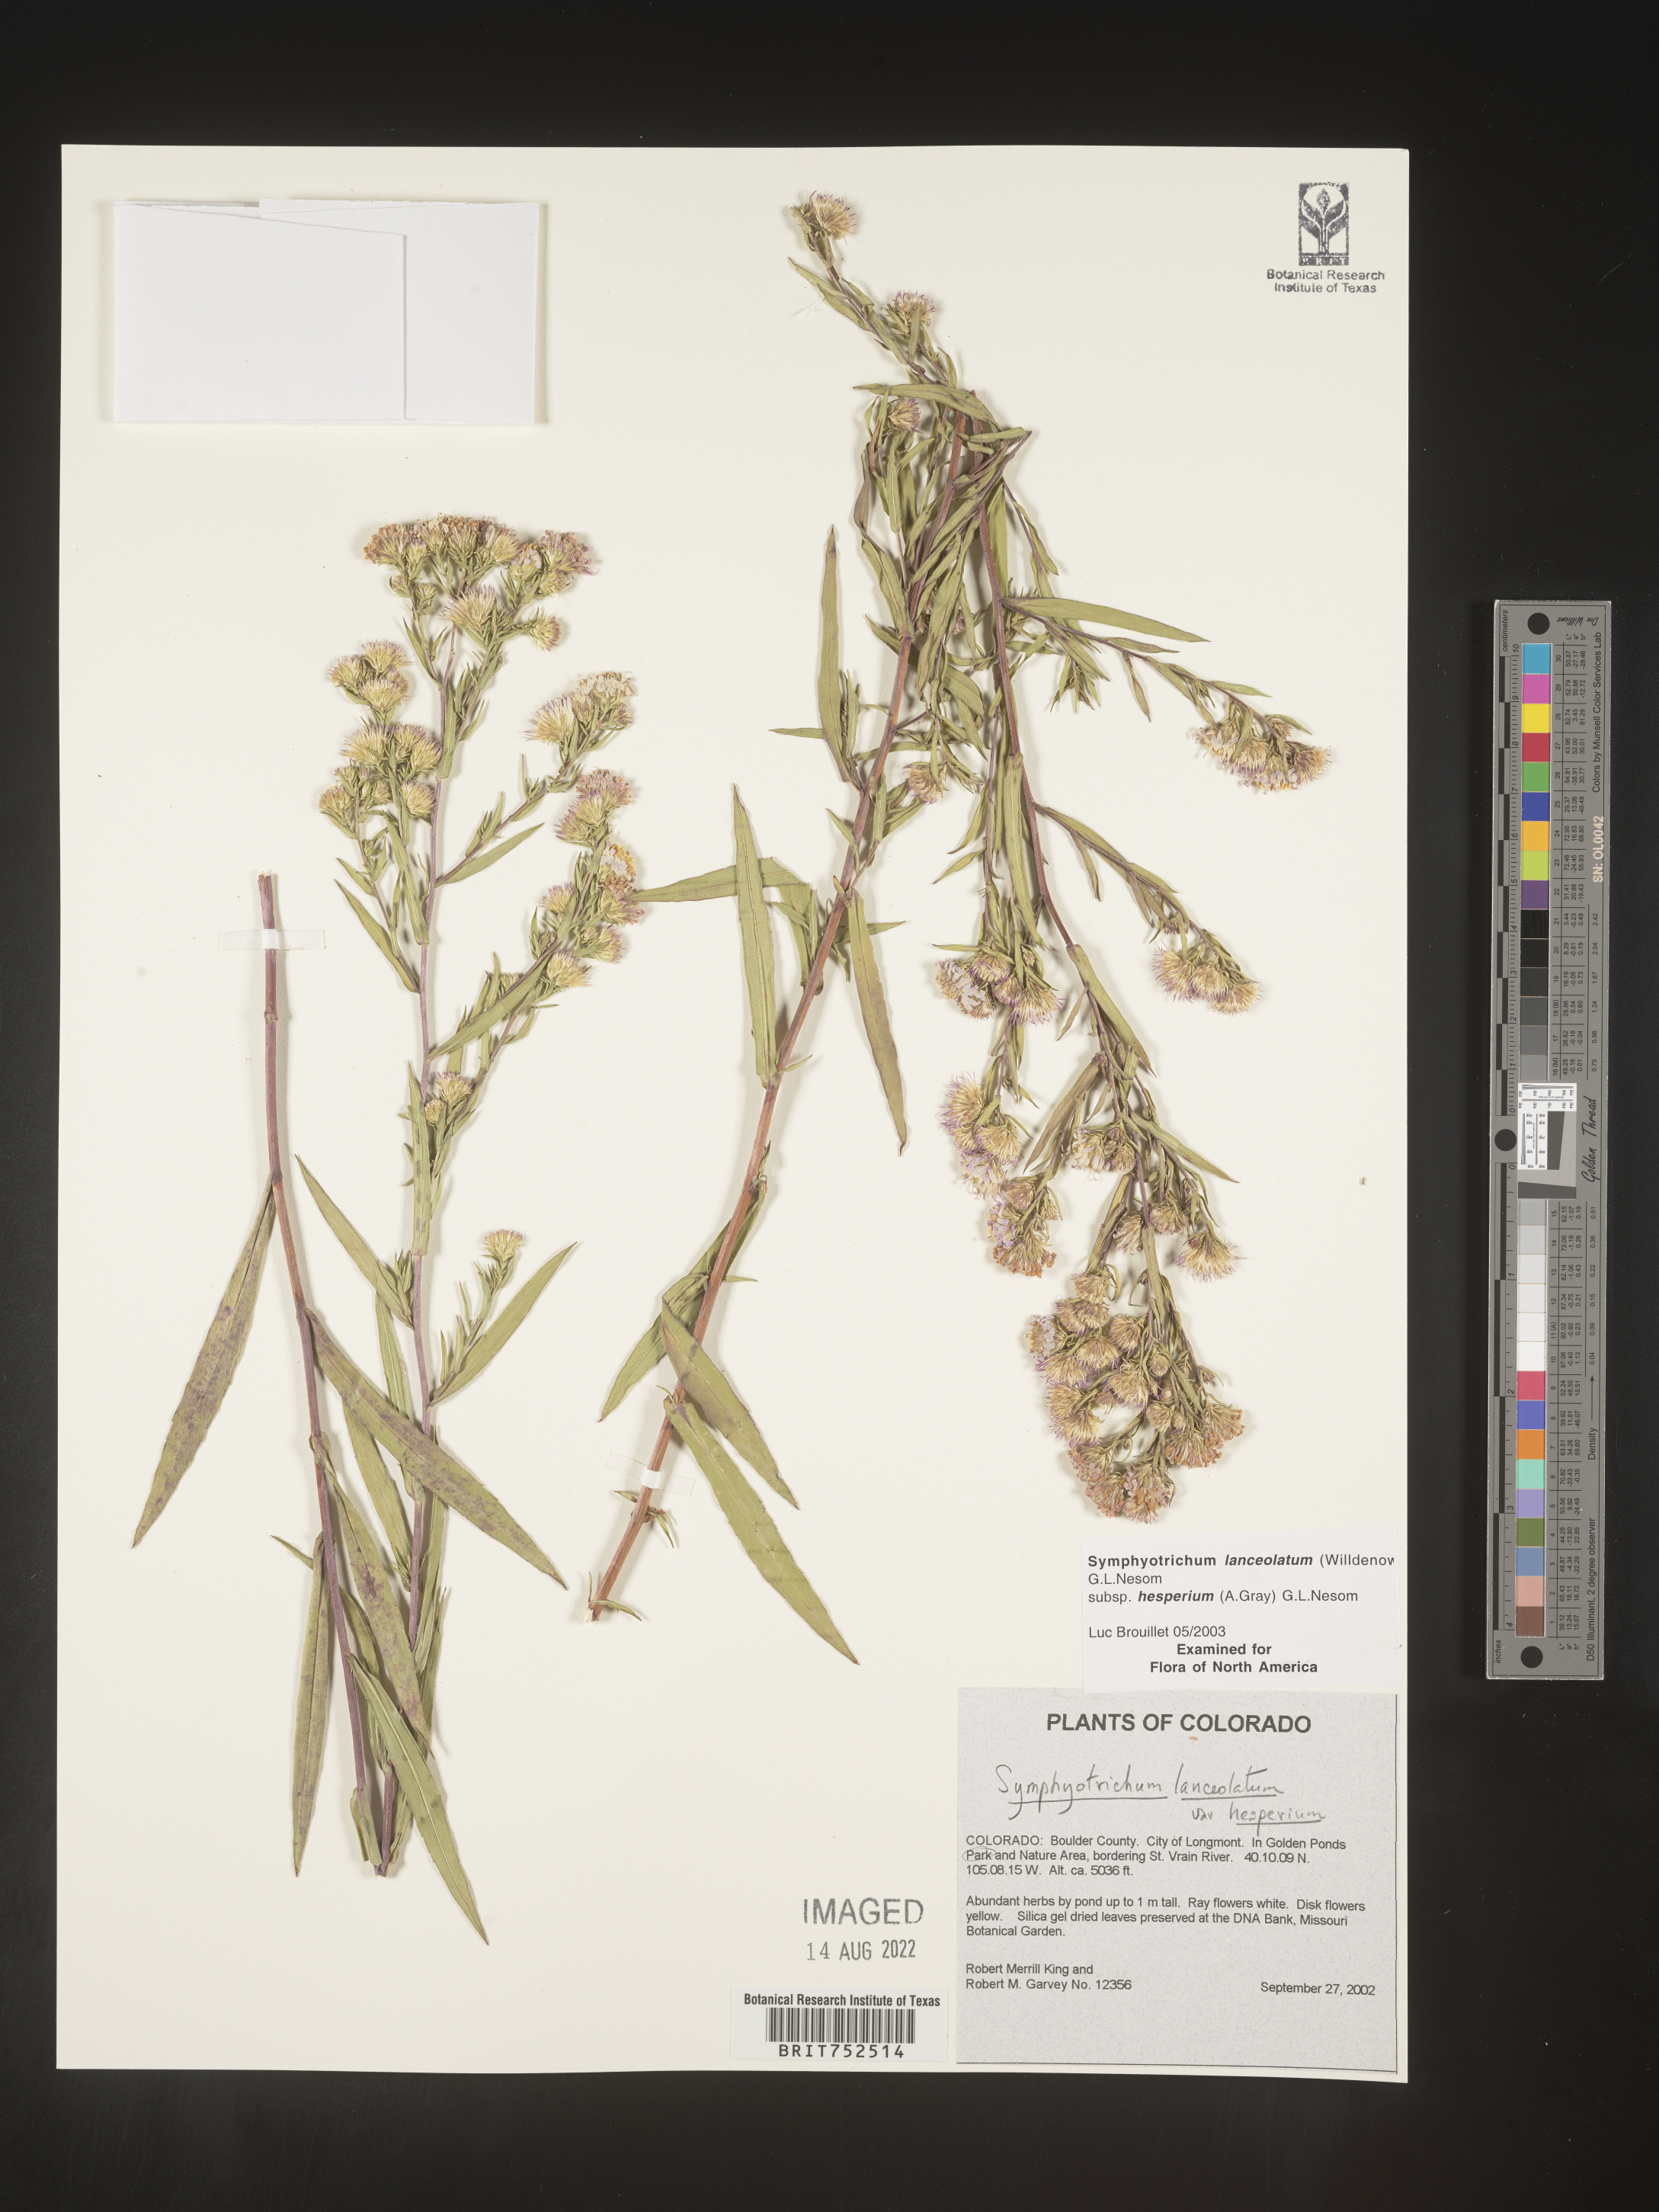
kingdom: Plantae
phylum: Tracheophyta
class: Magnoliopsida
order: Asterales
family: Asteraceae
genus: Symphyotrichum
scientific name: Symphyotrichum lanceolatum
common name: Panicled aster
